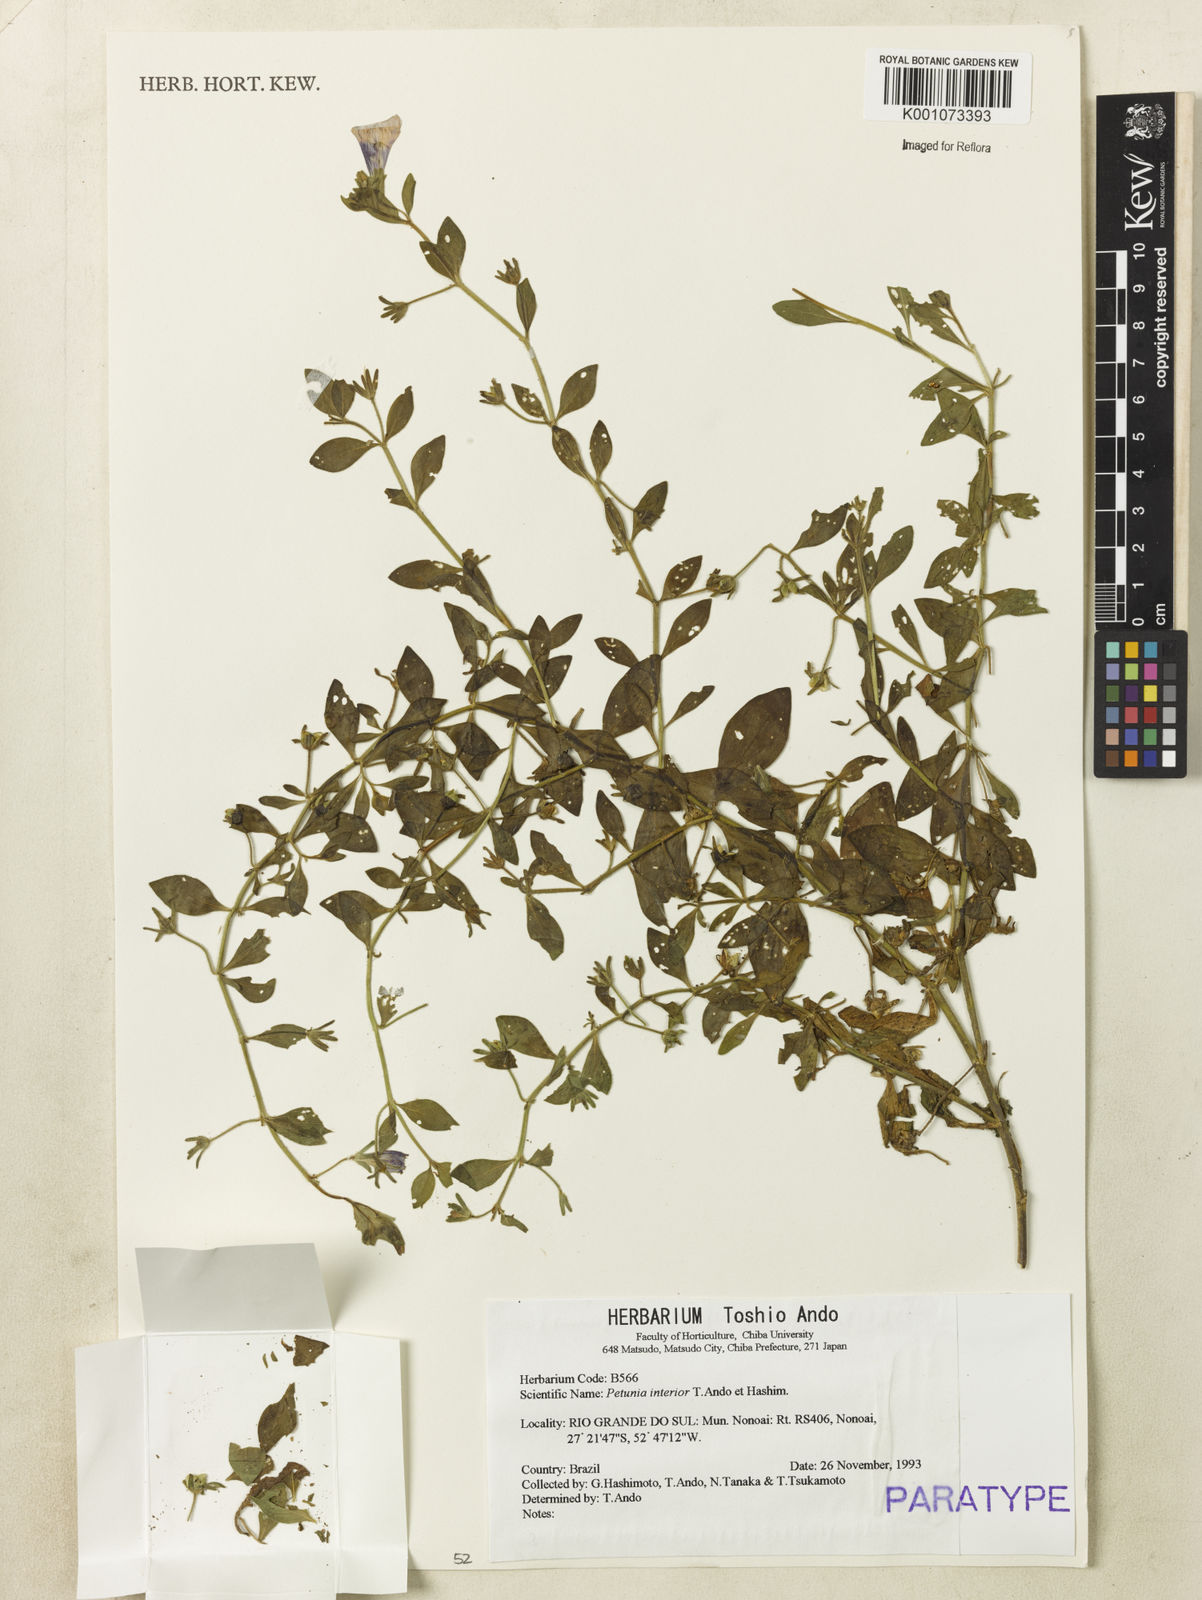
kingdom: Plantae
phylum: Tracheophyta
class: Magnoliopsida
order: Solanales
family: Solanaceae
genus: Petunia
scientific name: Petunia interior
